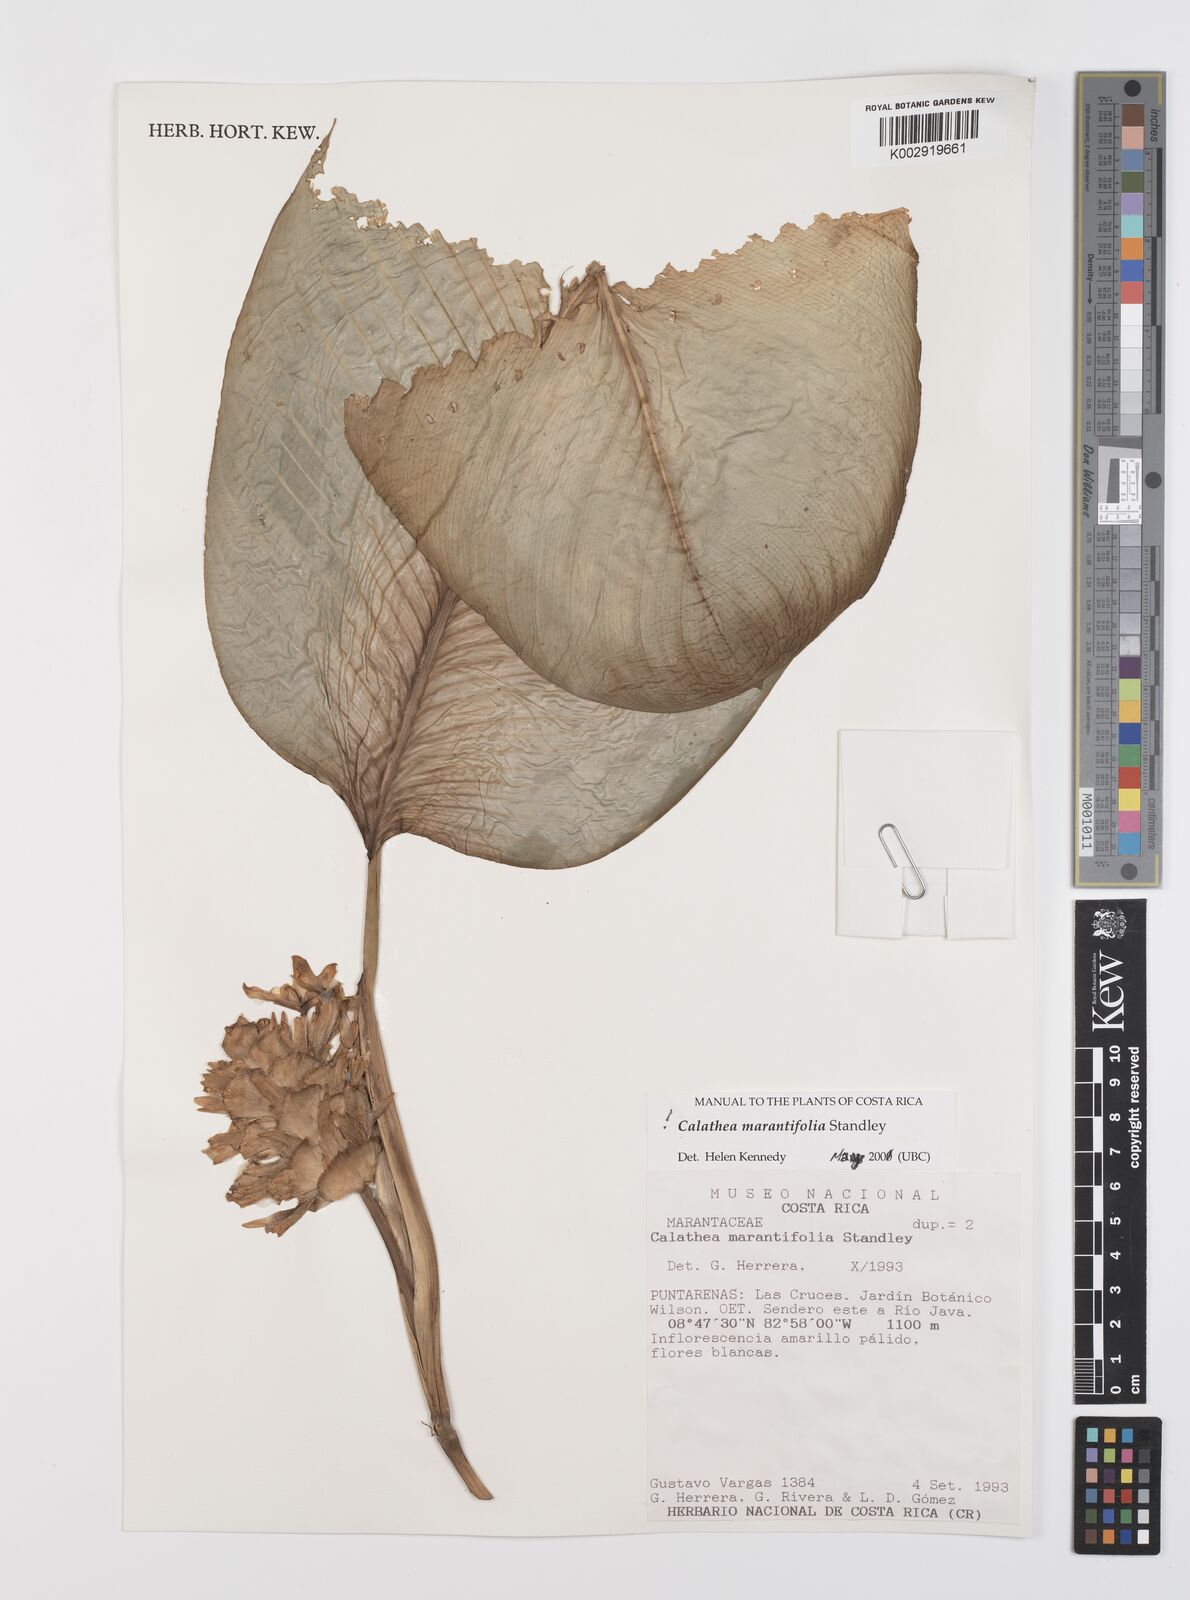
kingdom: Plantae
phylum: Tracheophyta
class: Liliopsida
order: Zingiberales
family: Marantaceae
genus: Goeppertia
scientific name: Goeppertia marantifolia
